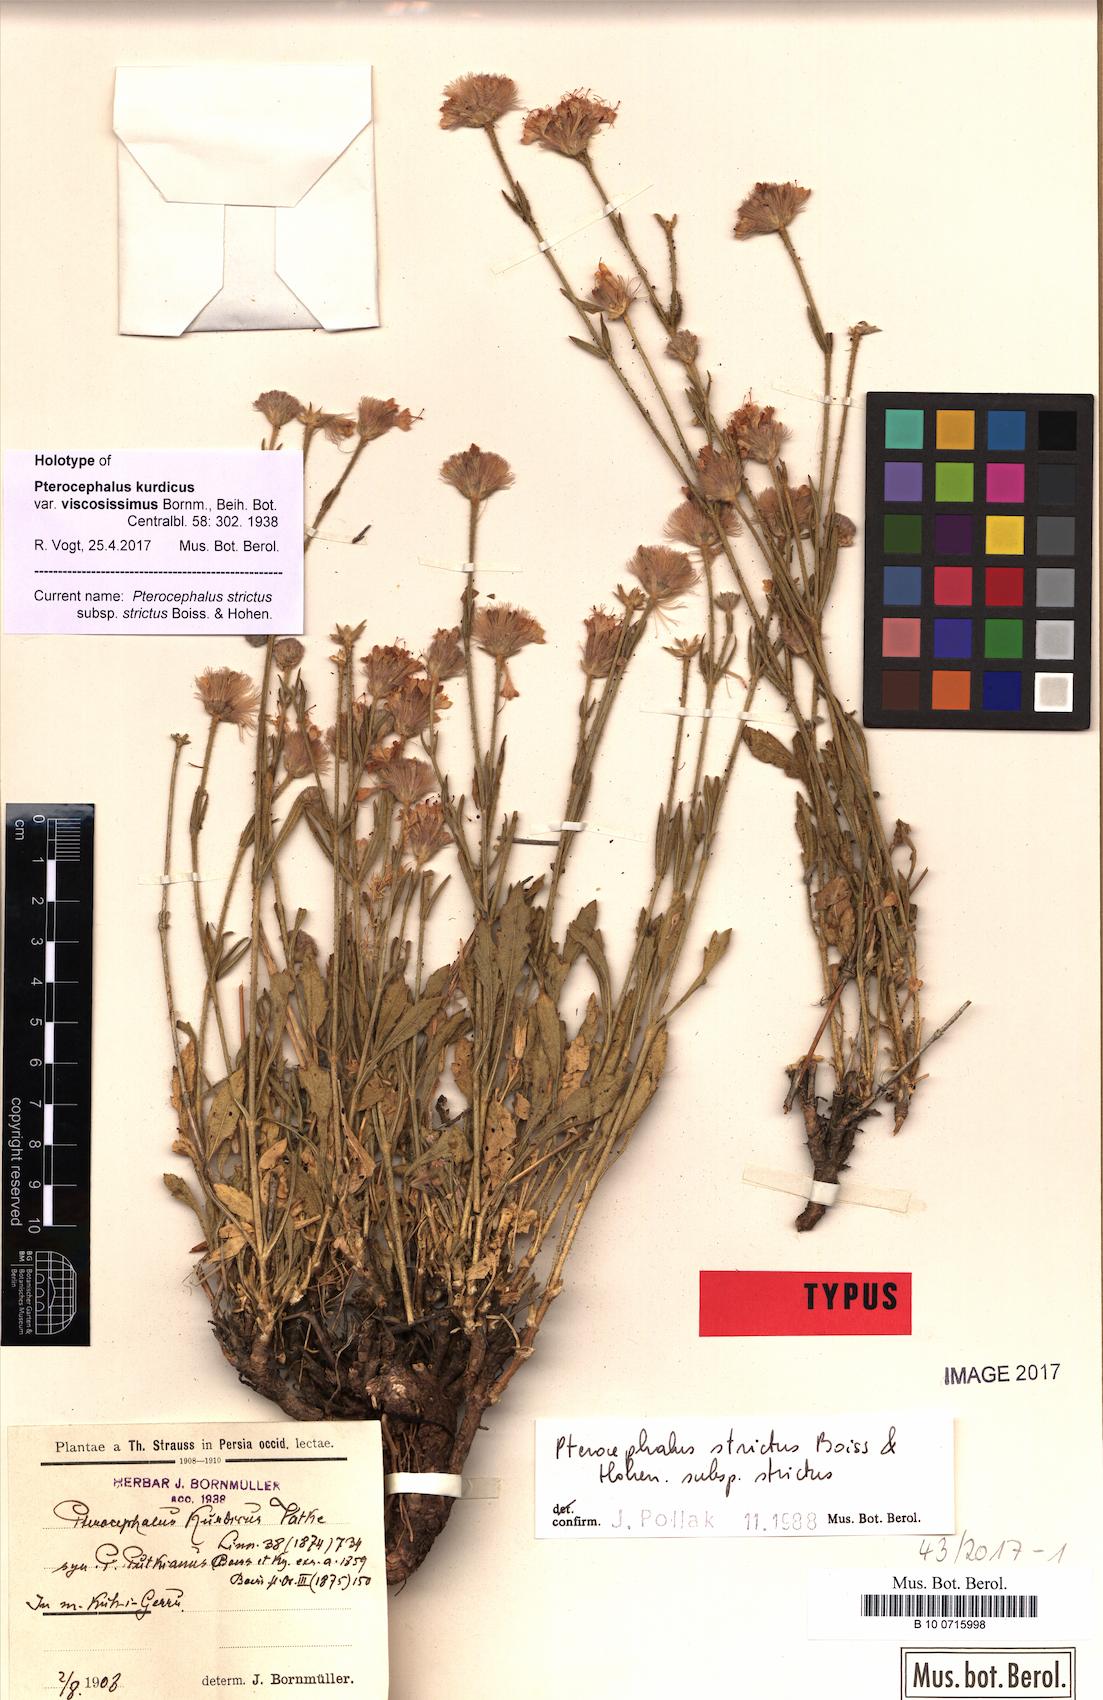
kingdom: Plantae
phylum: Tracheophyta
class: Magnoliopsida
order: Dipsacales
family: Caprifoliaceae
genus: Pterocephalus
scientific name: Pterocephalus strictus
